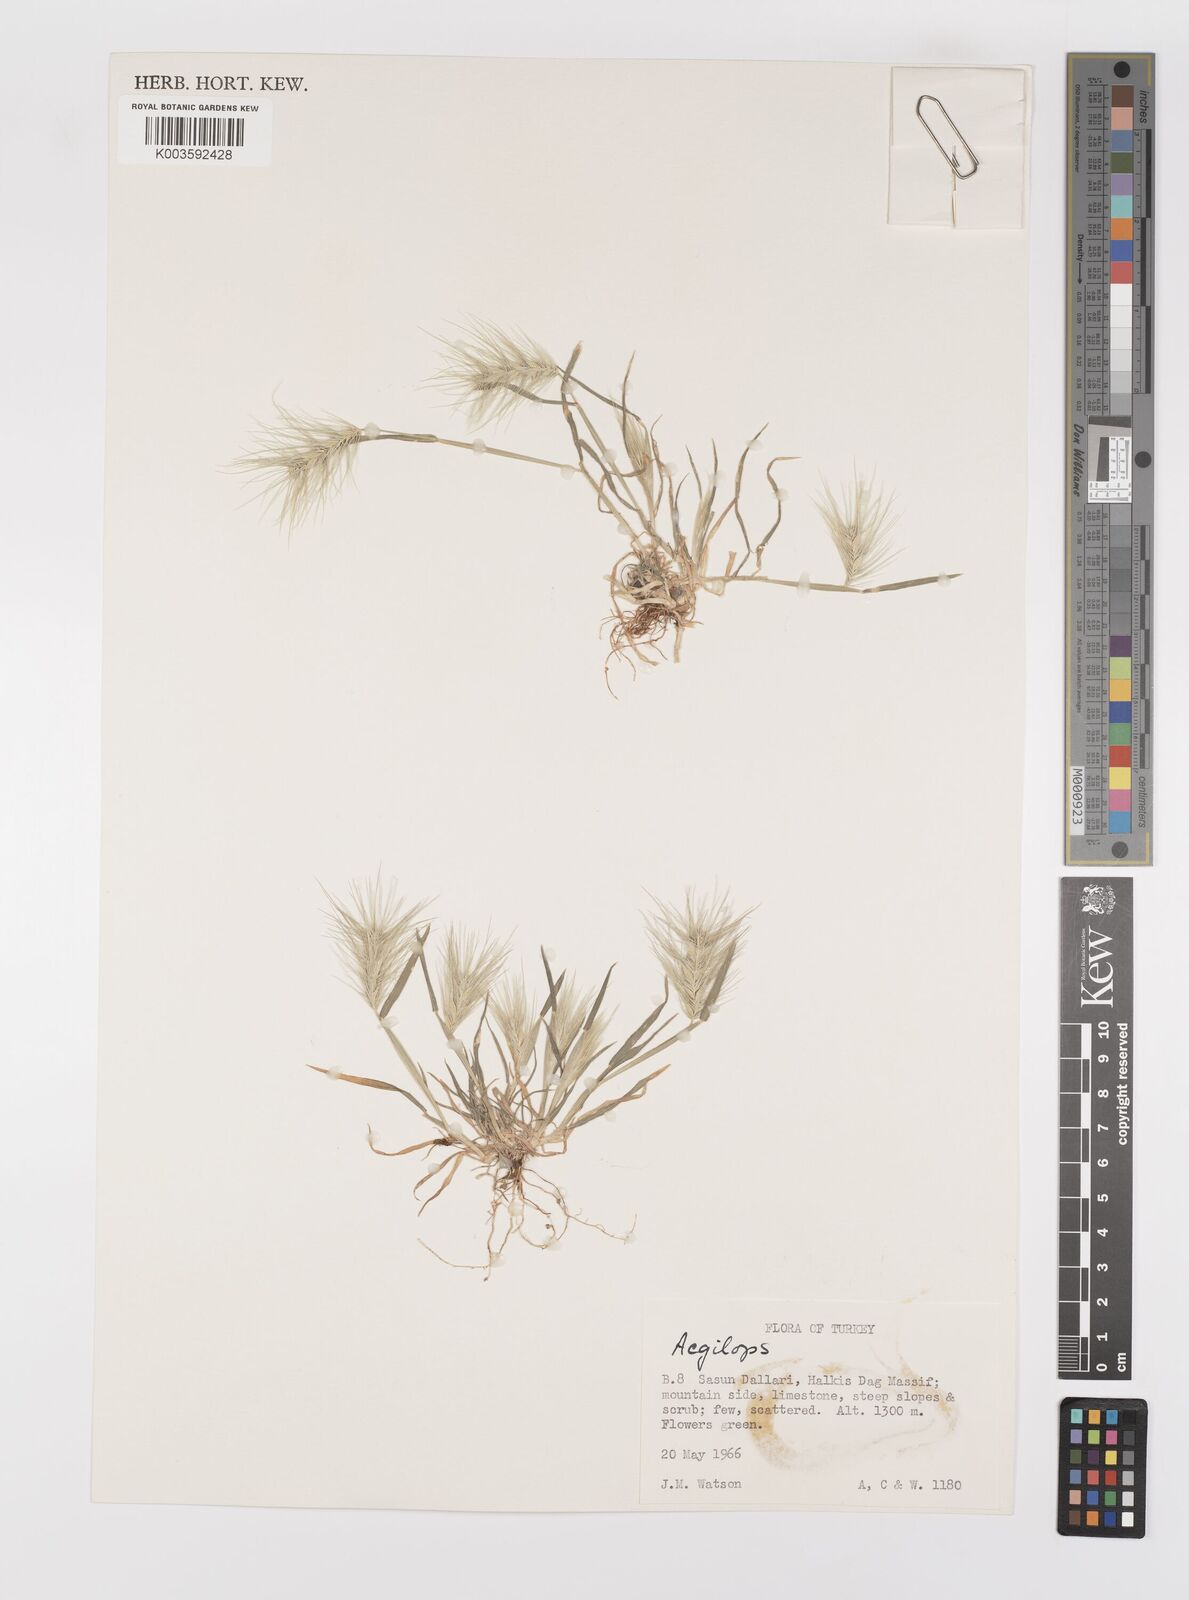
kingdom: Plantae
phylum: Tracheophyta
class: Liliopsida
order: Poales
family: Poaceae
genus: Heteranthelium
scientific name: Heteranthelium piliferum
